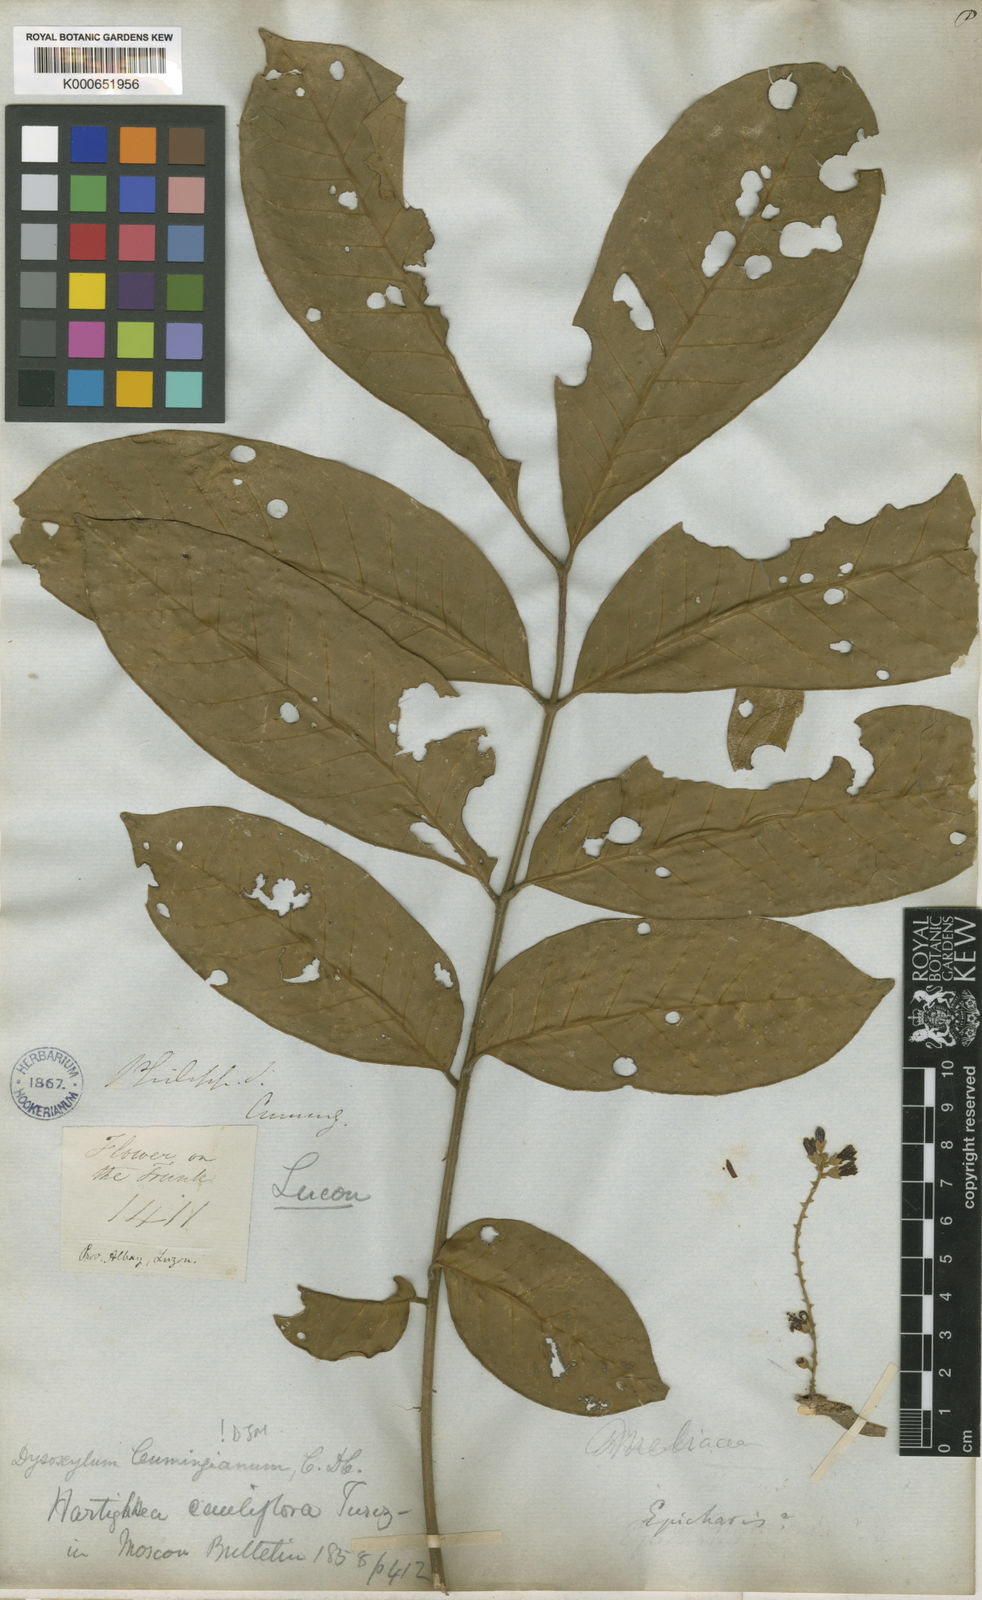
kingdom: Plantae
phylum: Tracheophyta
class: Magnoliopsida
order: Sapindales
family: Meliaceae
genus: Epicharis
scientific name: Epicharis cumingiana
